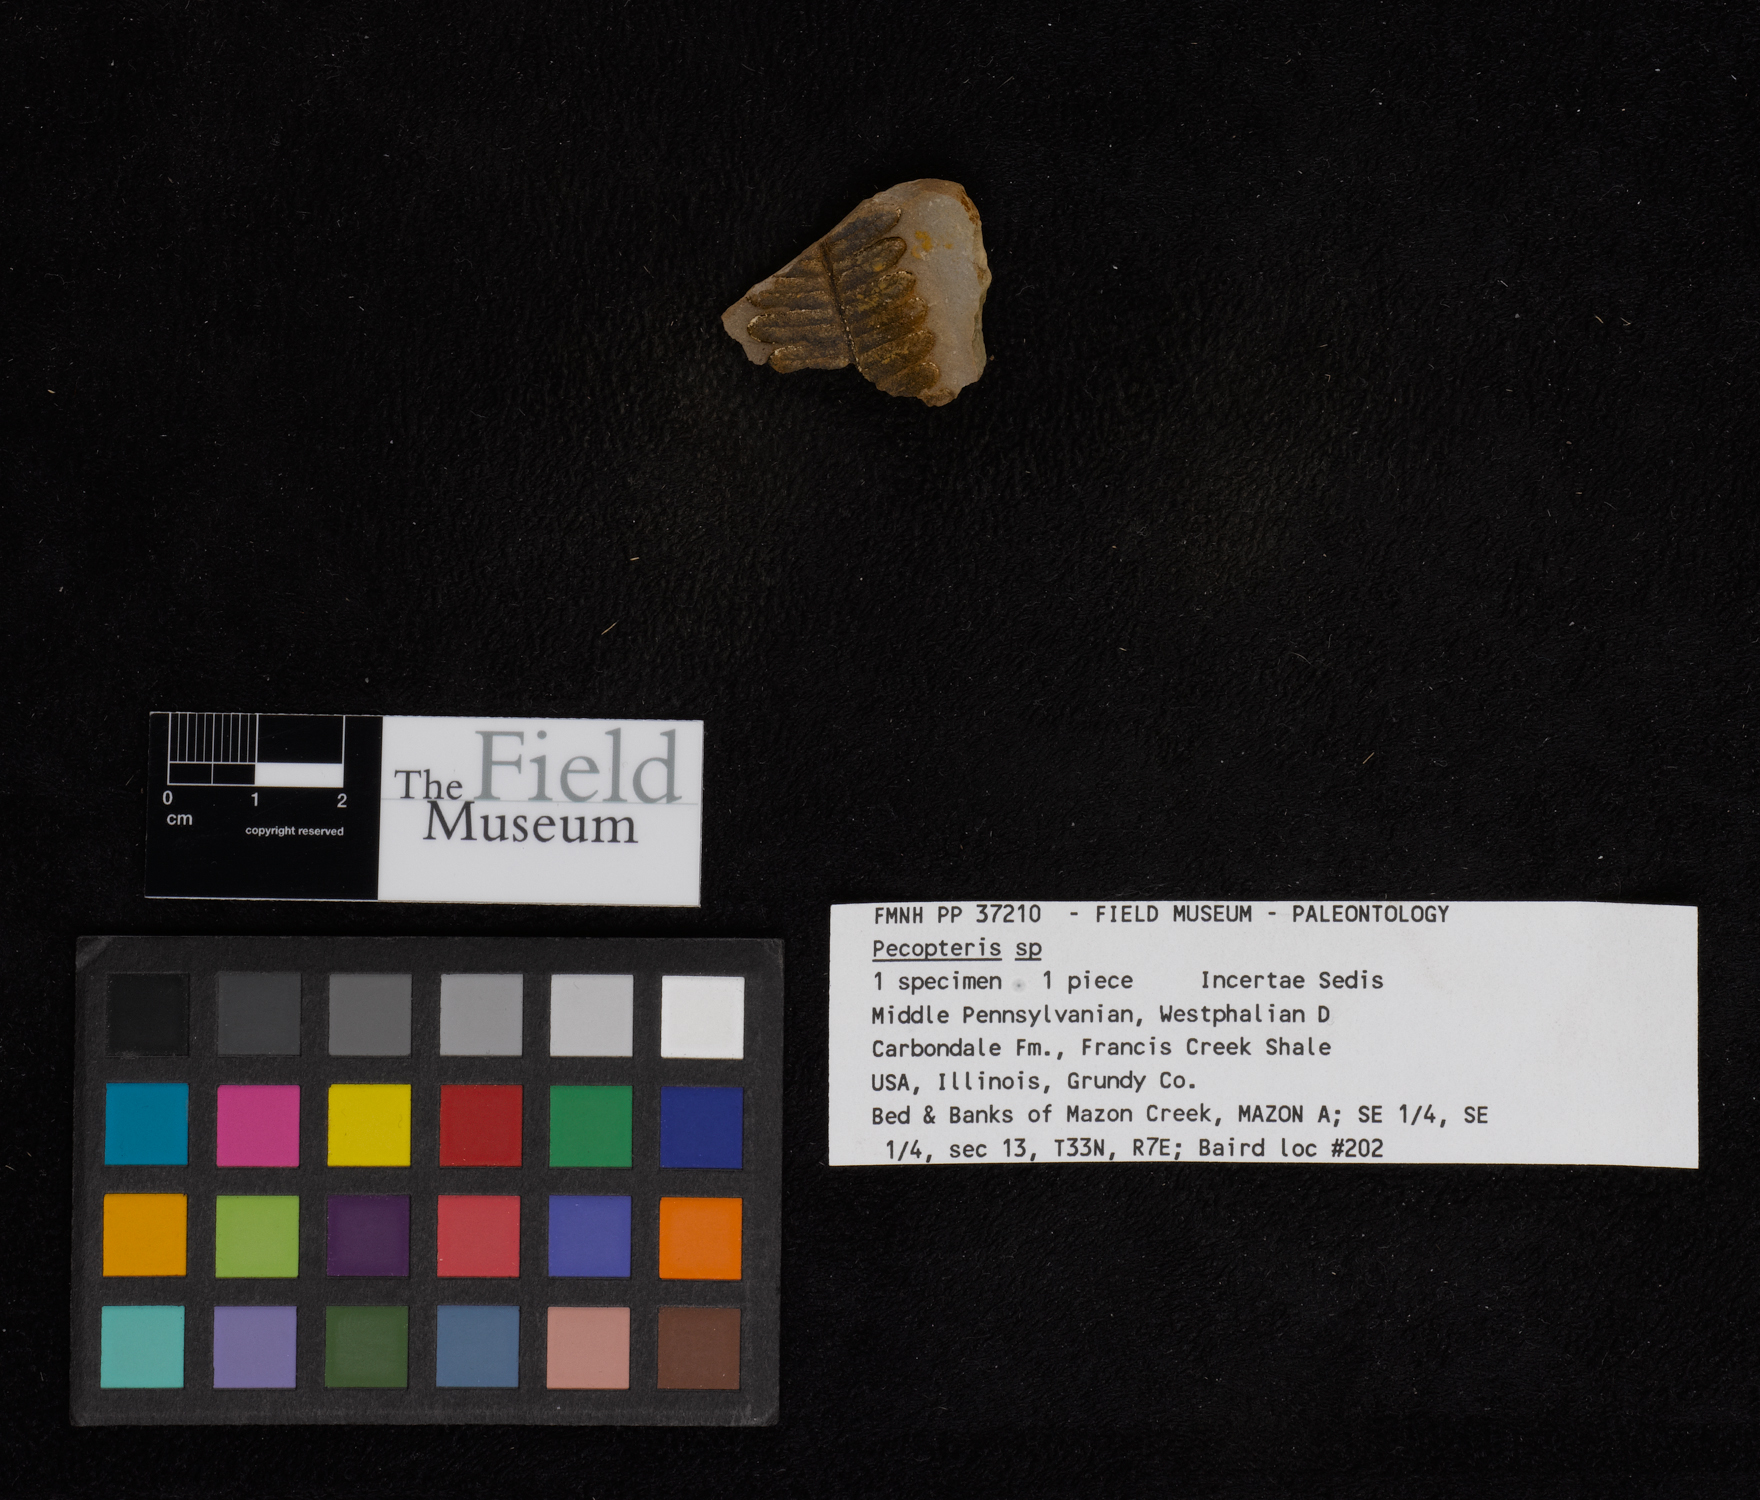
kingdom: Plantae
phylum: Tracheophyta
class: Polypodiopsida
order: Marattiales
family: Asterothecaceae
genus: Pecopteris
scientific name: Pecopteris
